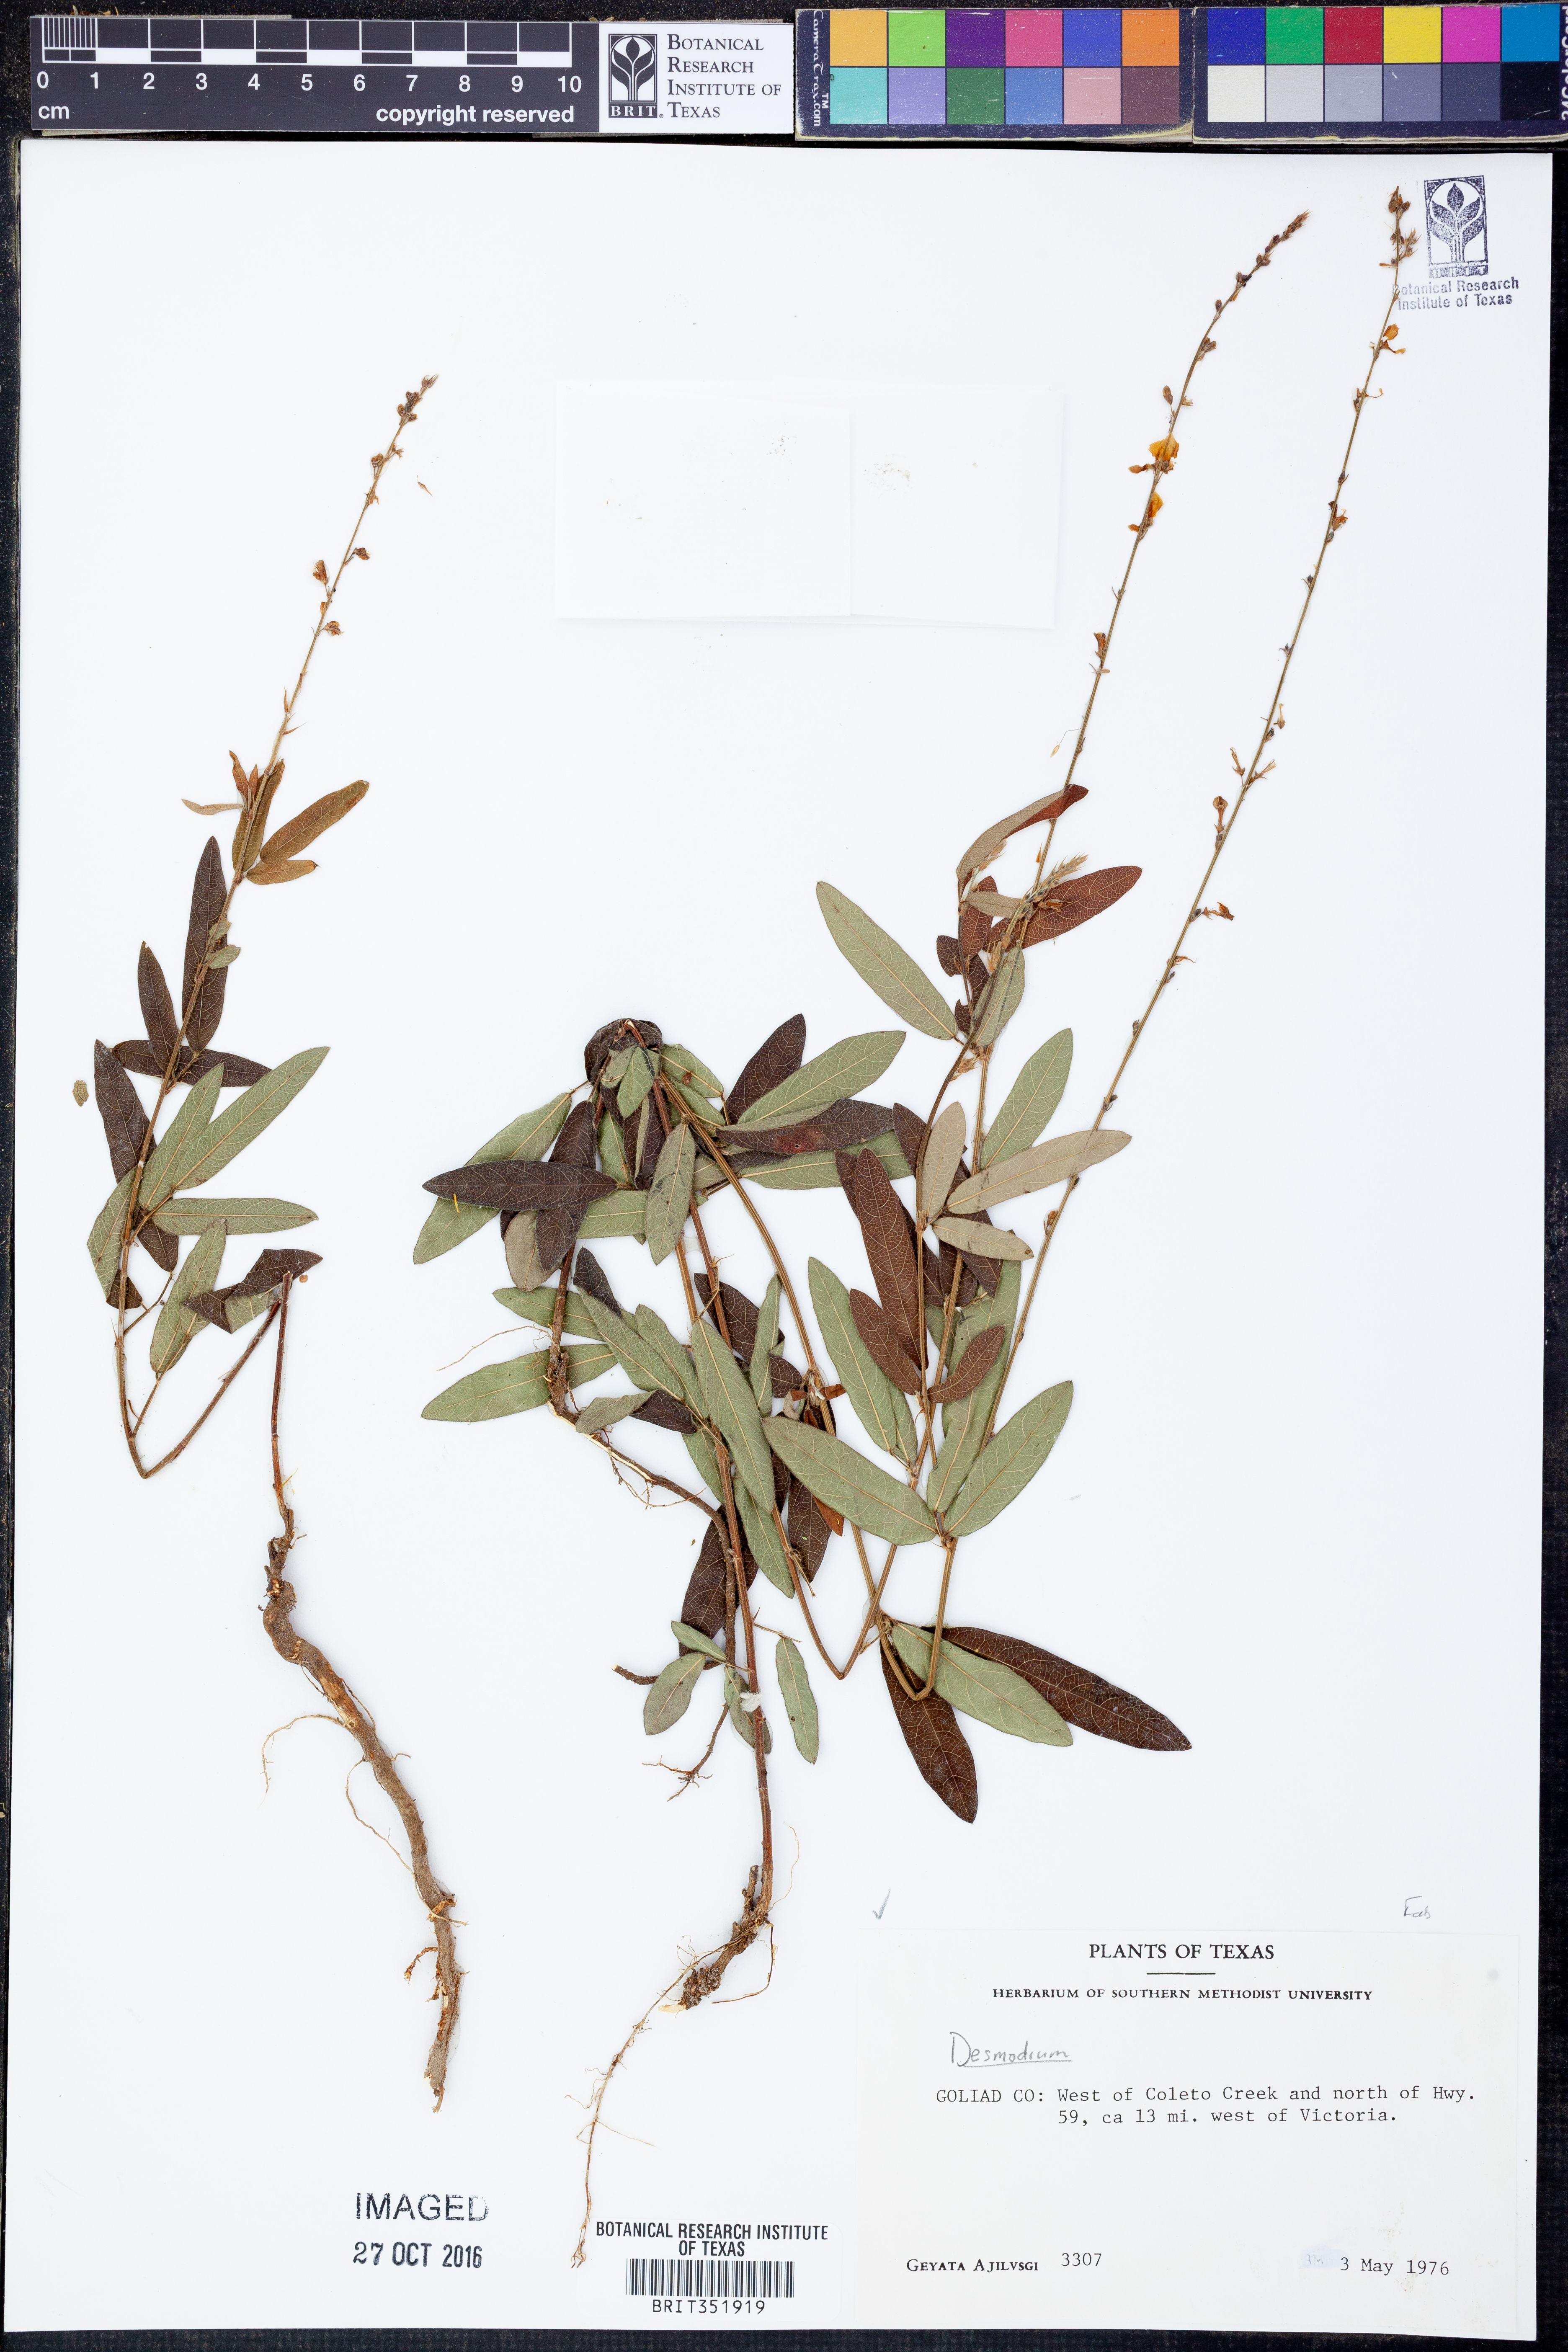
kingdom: Plantae
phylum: Tracheophyta
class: Magnoliopsida
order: Fabales
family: Fabaceae
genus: Desmodium
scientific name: Desmodium
